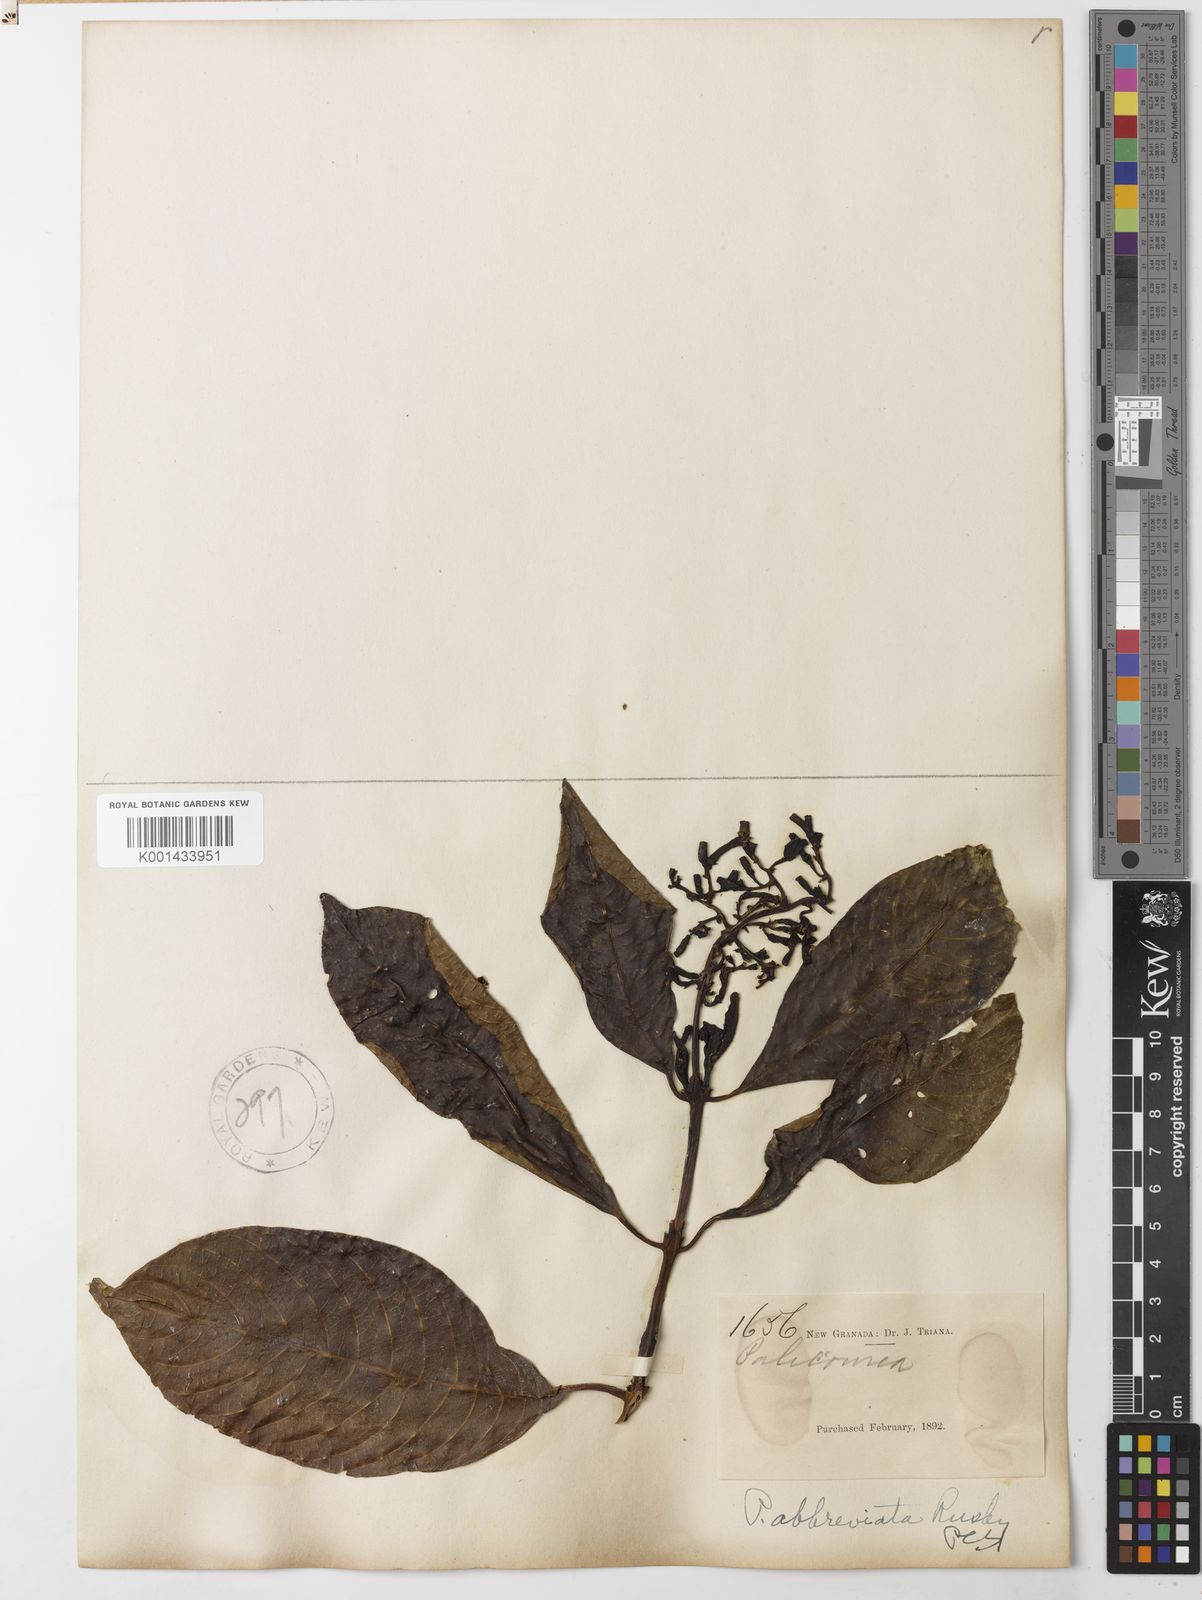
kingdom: Plantae
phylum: Tracheophyta
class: Magnoliopsida
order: Gentianales
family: Rubiaceae
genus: Palicourea
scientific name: Palicourea abbreviata
